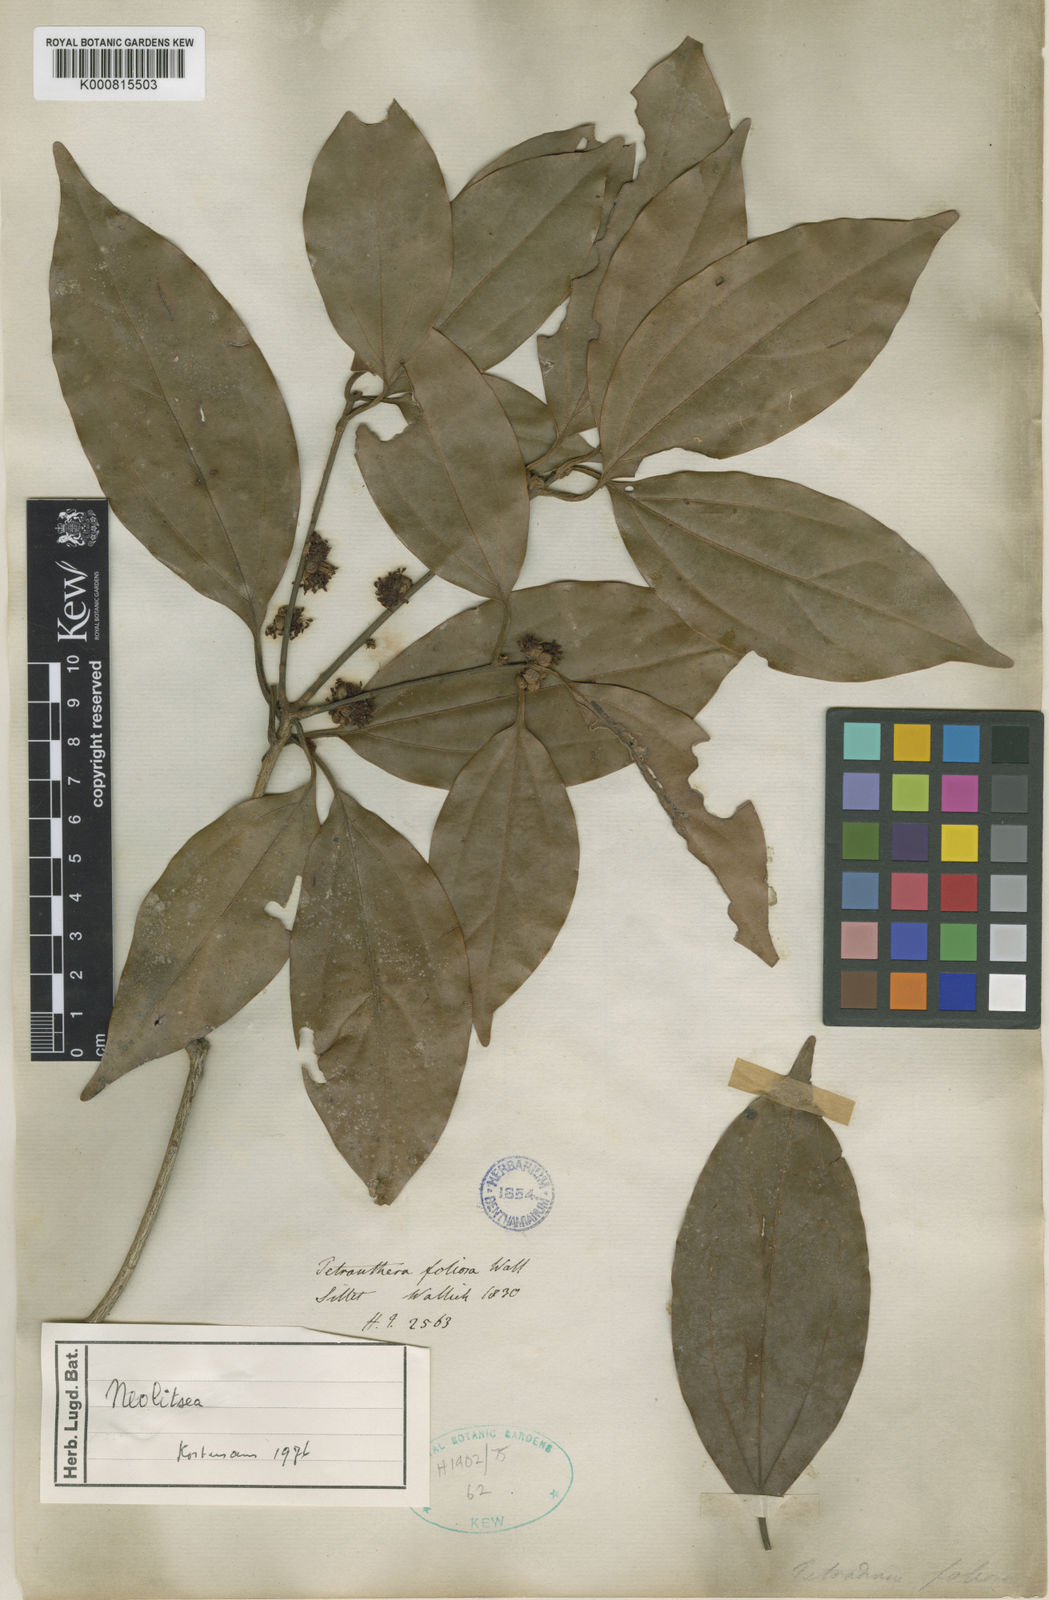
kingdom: Plantae
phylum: Tracheophyta
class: Magnoliopsida
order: Laurales
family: Lauraceae
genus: Neolitsea
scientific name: Neolitsea
